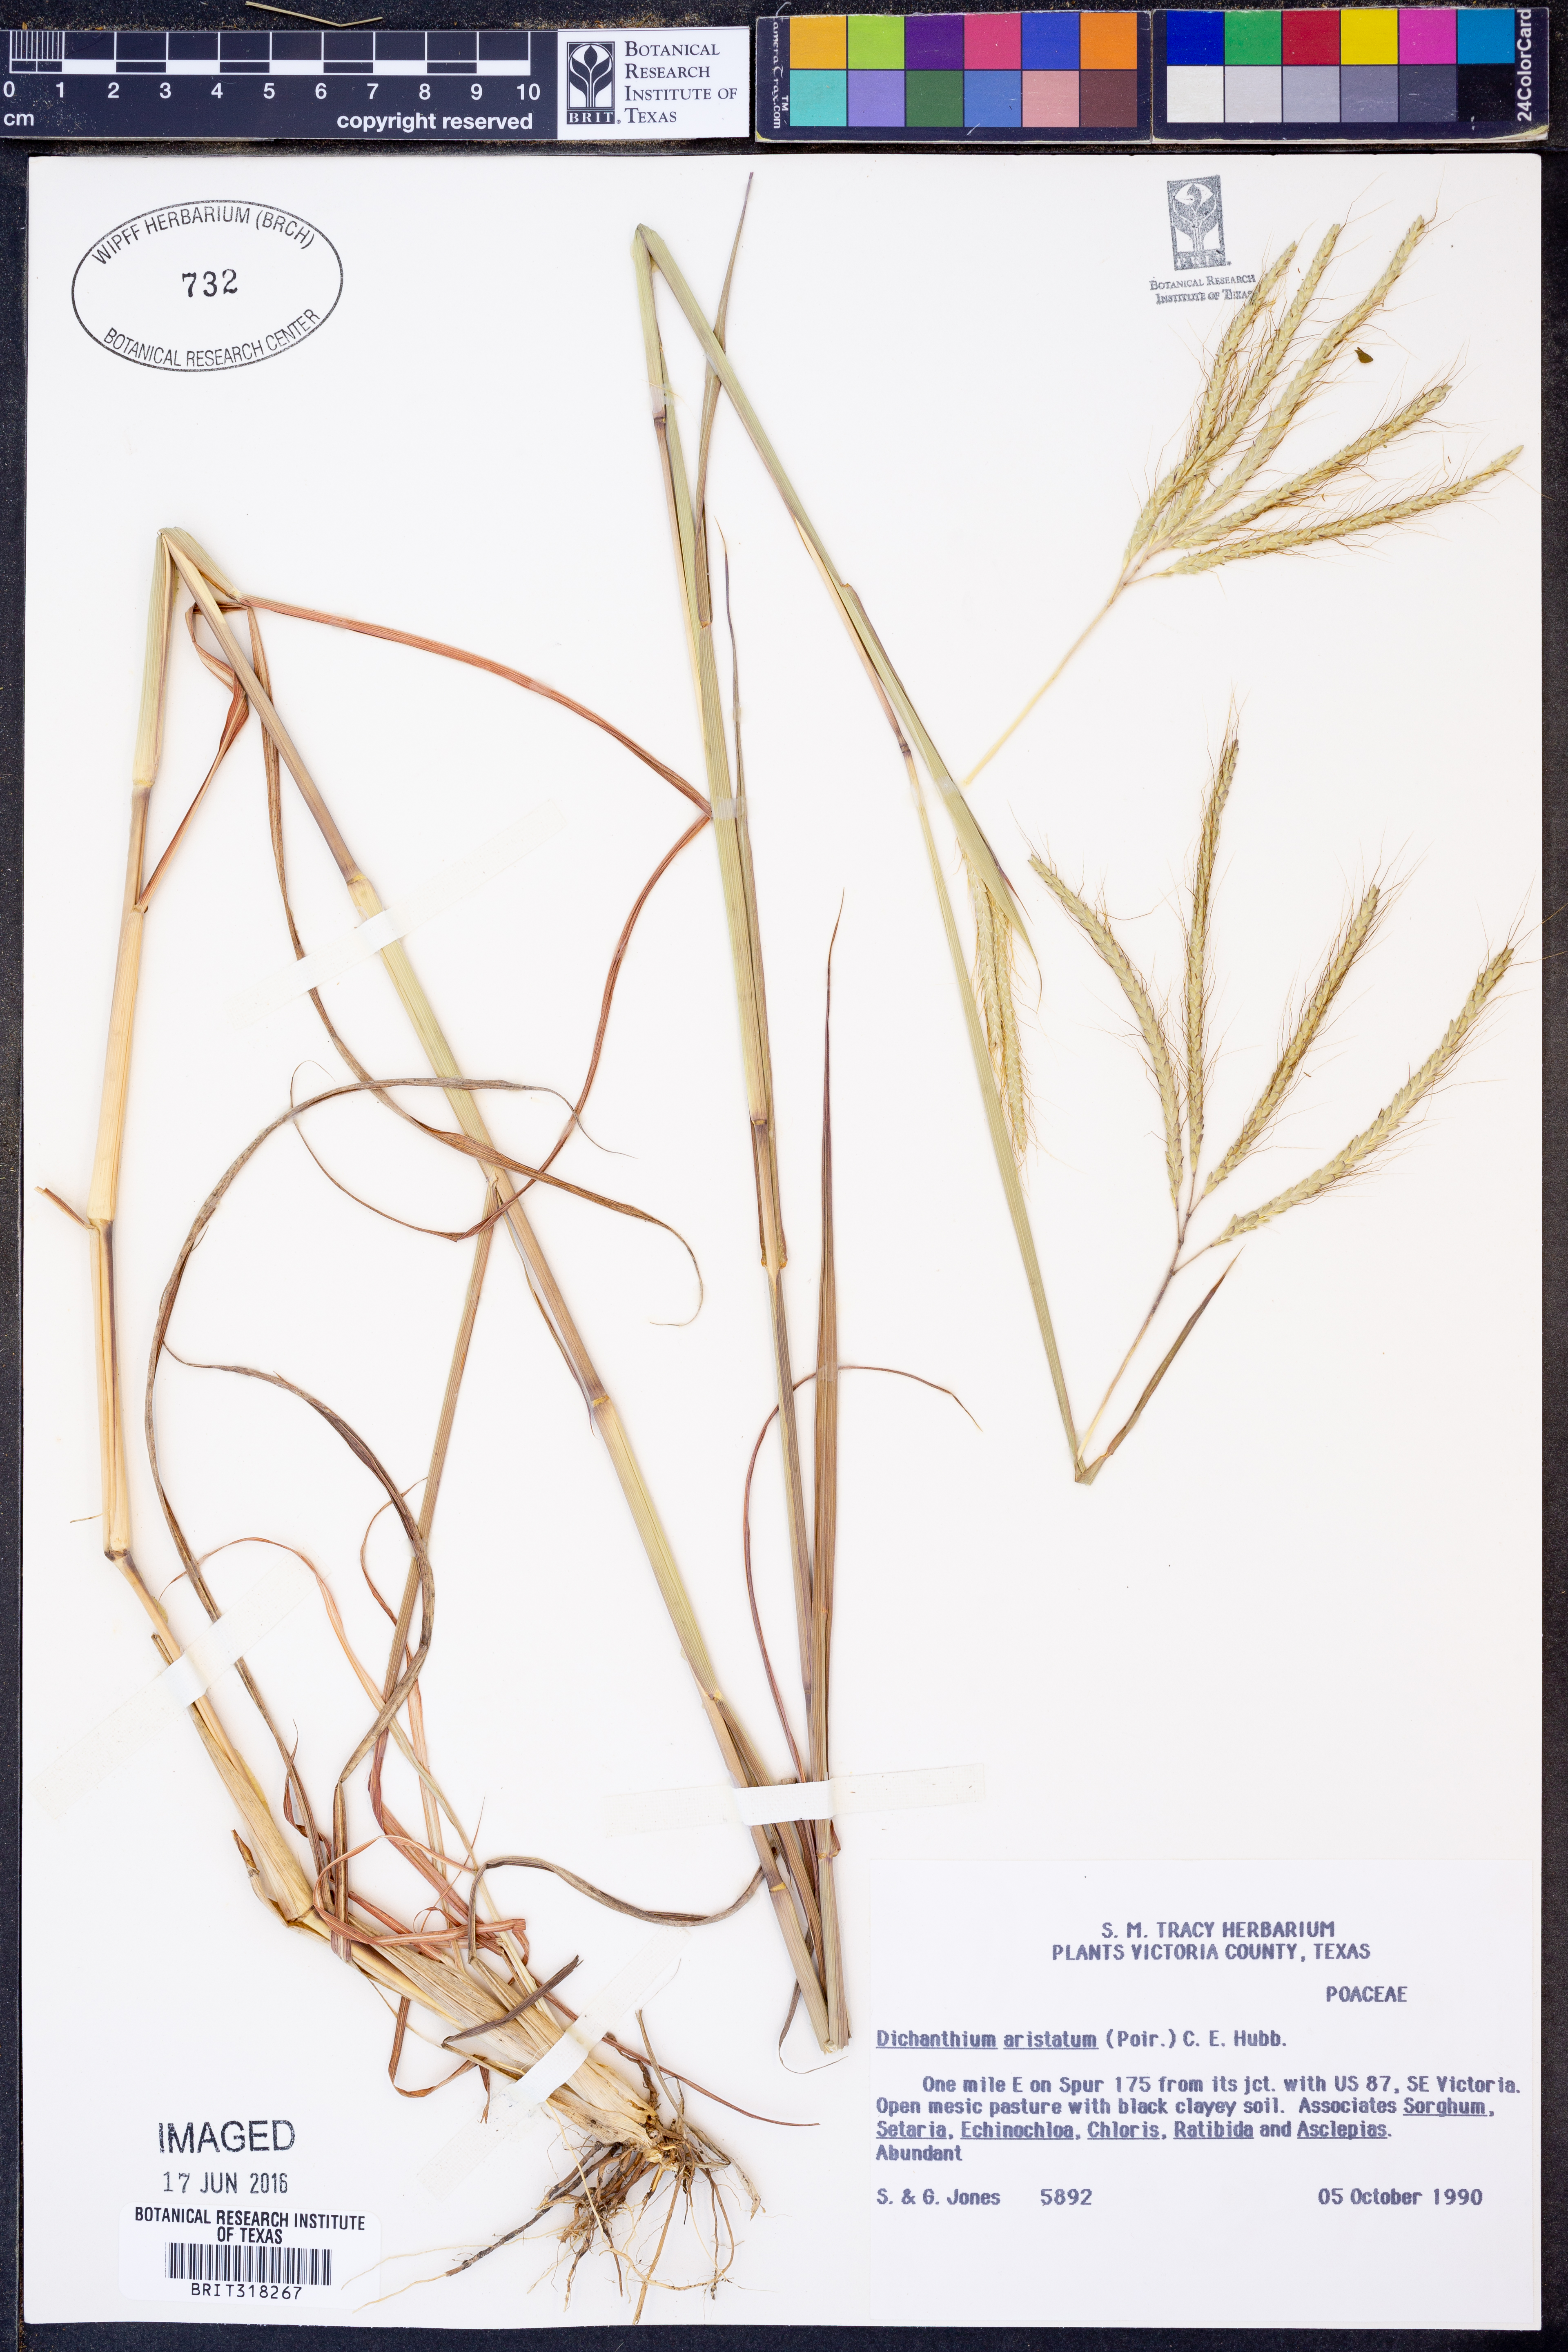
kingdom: Plantae
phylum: Tracheophyta
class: Liliopsida
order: Poales
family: Poaceae
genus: Dichanthium
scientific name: Dichanthium aristatum
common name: Angleton bluestem
